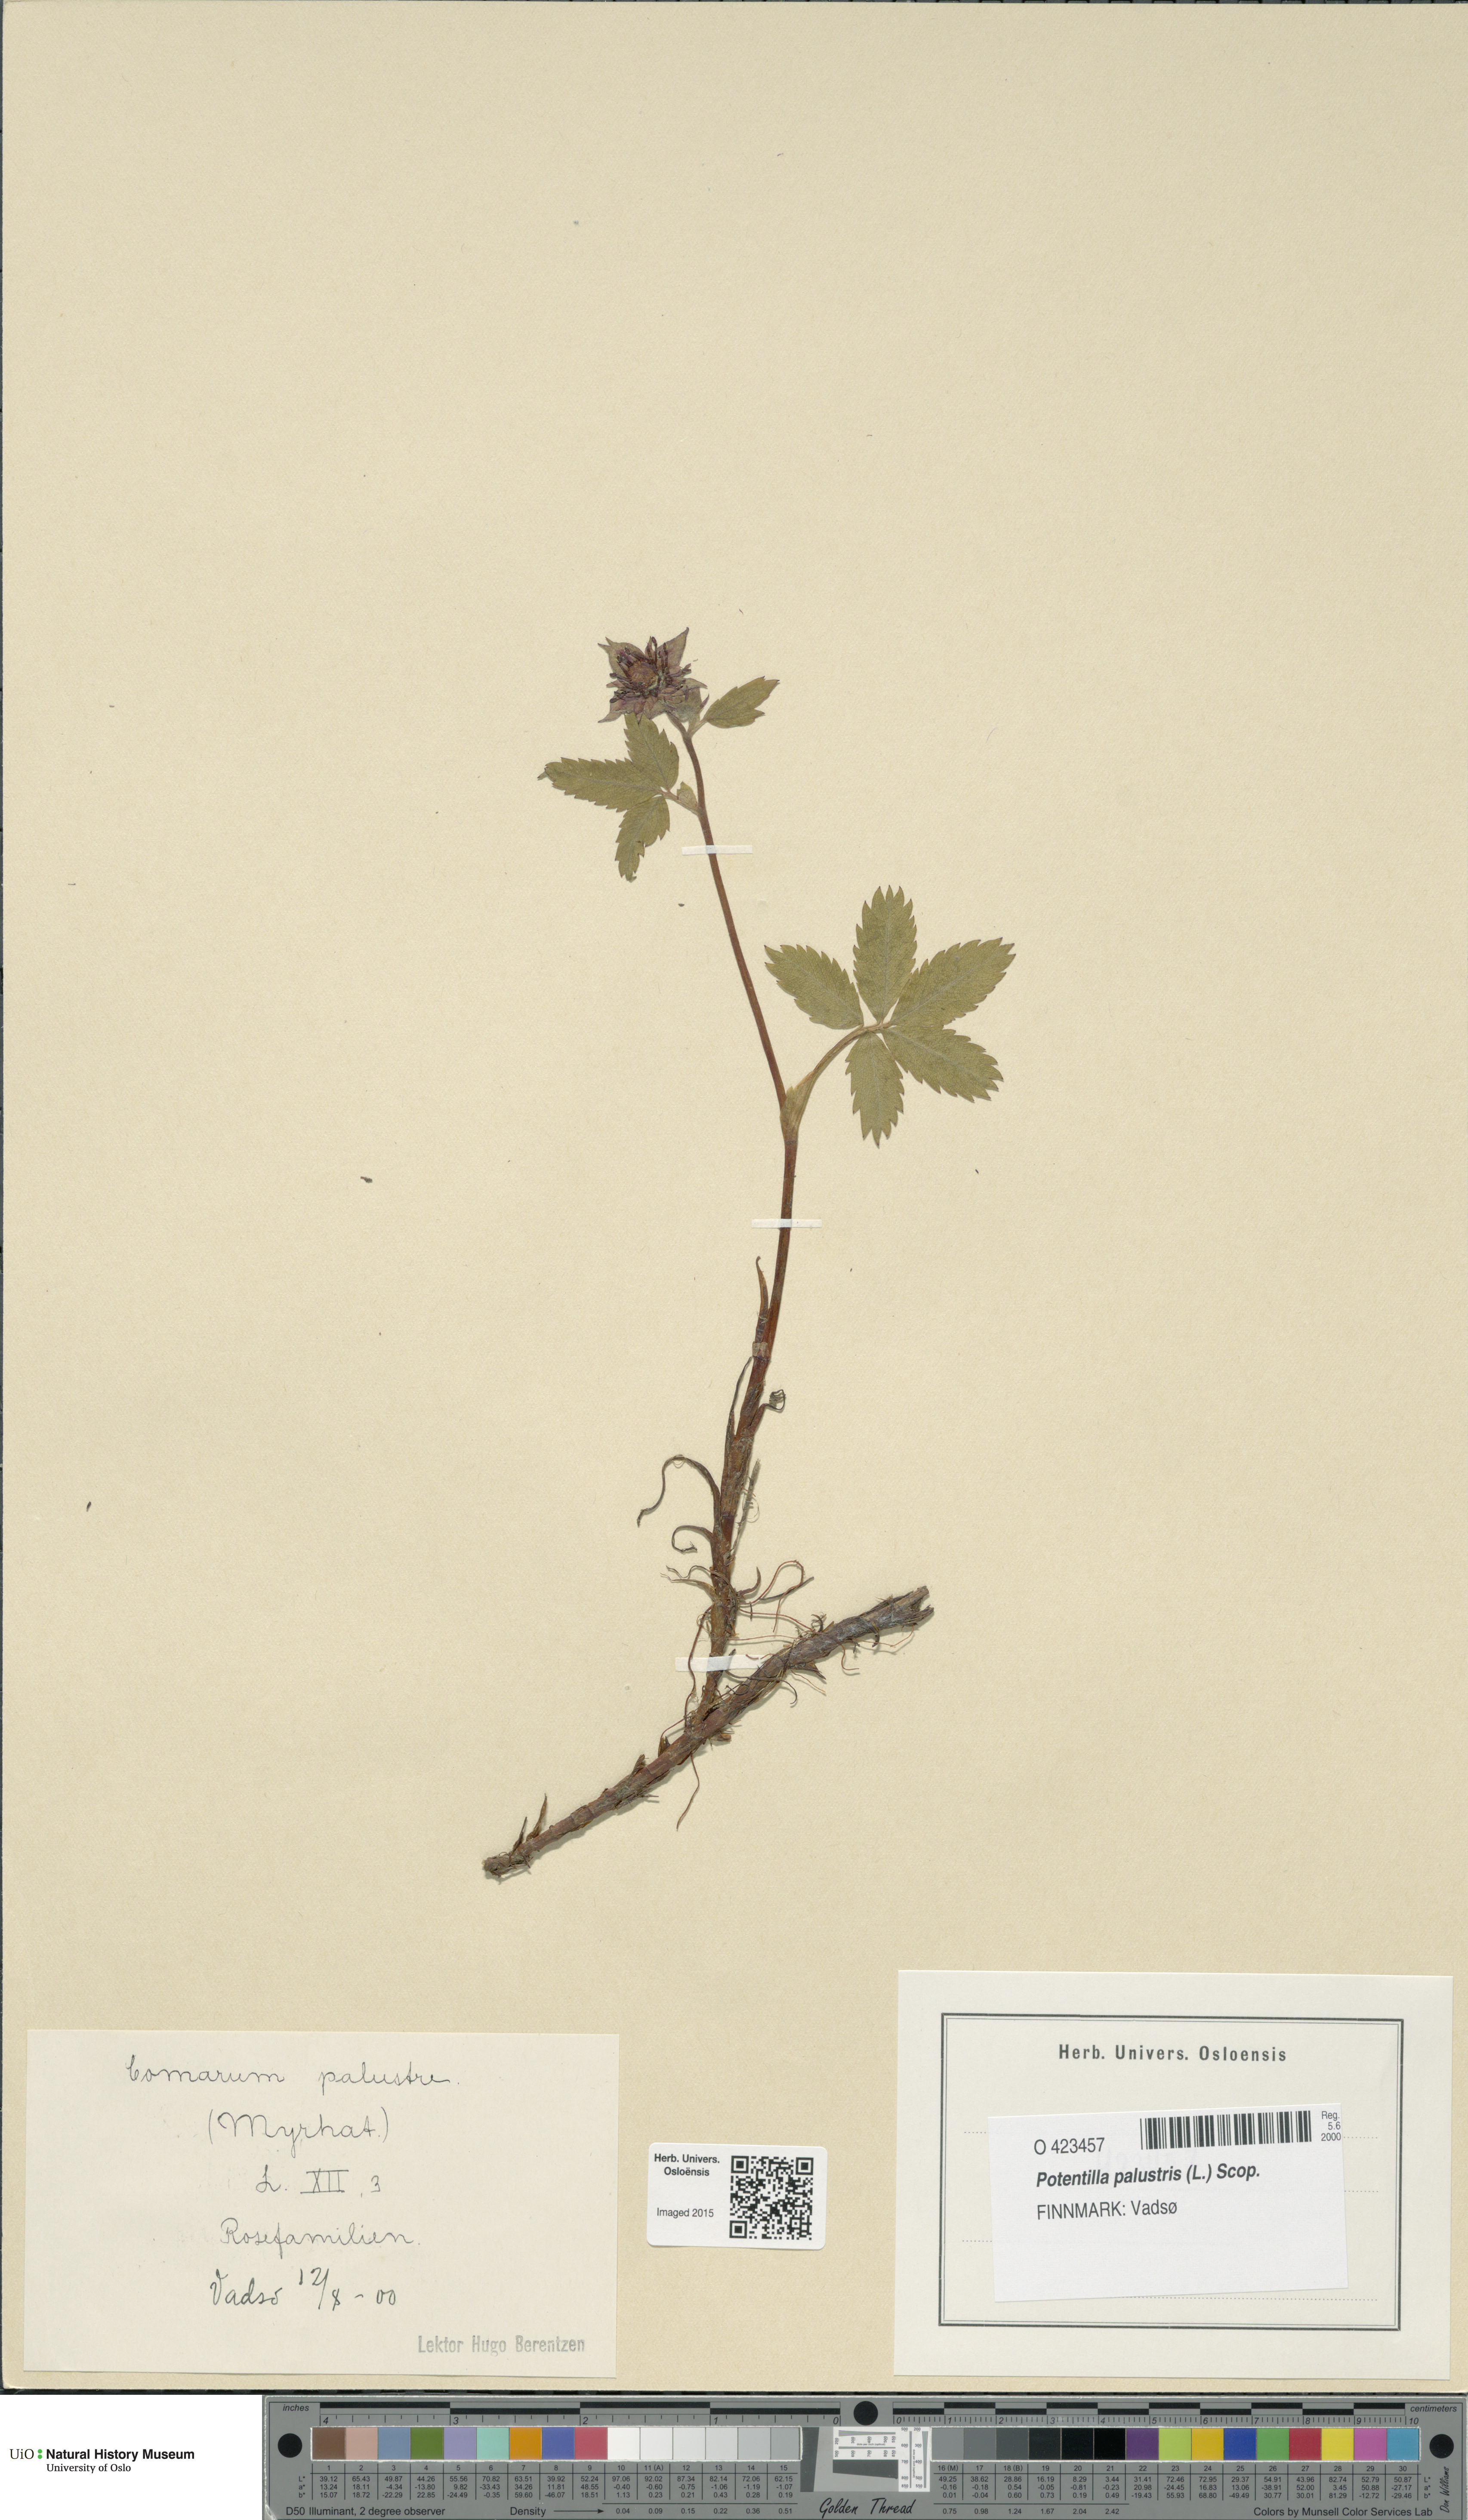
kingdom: Plantae
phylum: Tracheophyta
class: Magnoliopsida
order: Rosales
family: Rosaceae
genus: Comarum
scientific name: Comarum palustre
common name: Marsh cinquefoil
